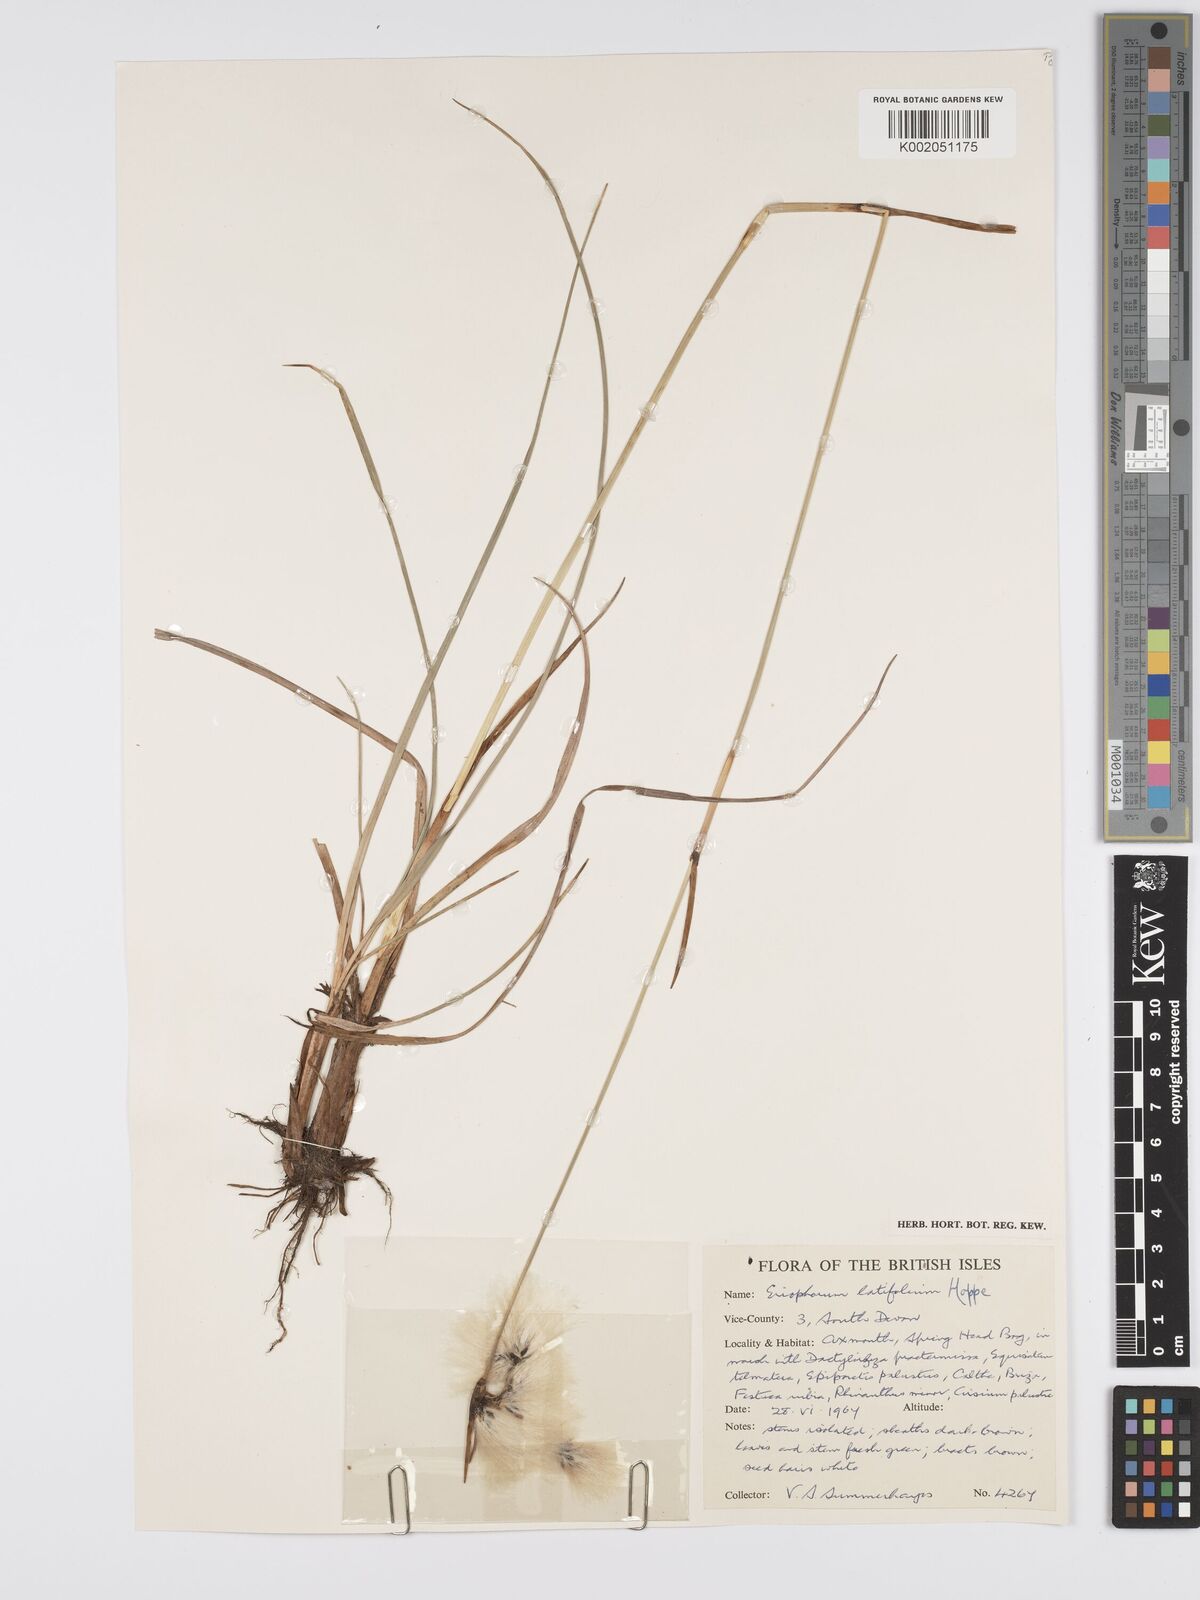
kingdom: Plantae
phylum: Tracheophyta
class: Liliopsida
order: Poales
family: Cyperaceae
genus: Eriophorum
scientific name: Eriophorum latifolium
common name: Broad-leaved cottongrass
